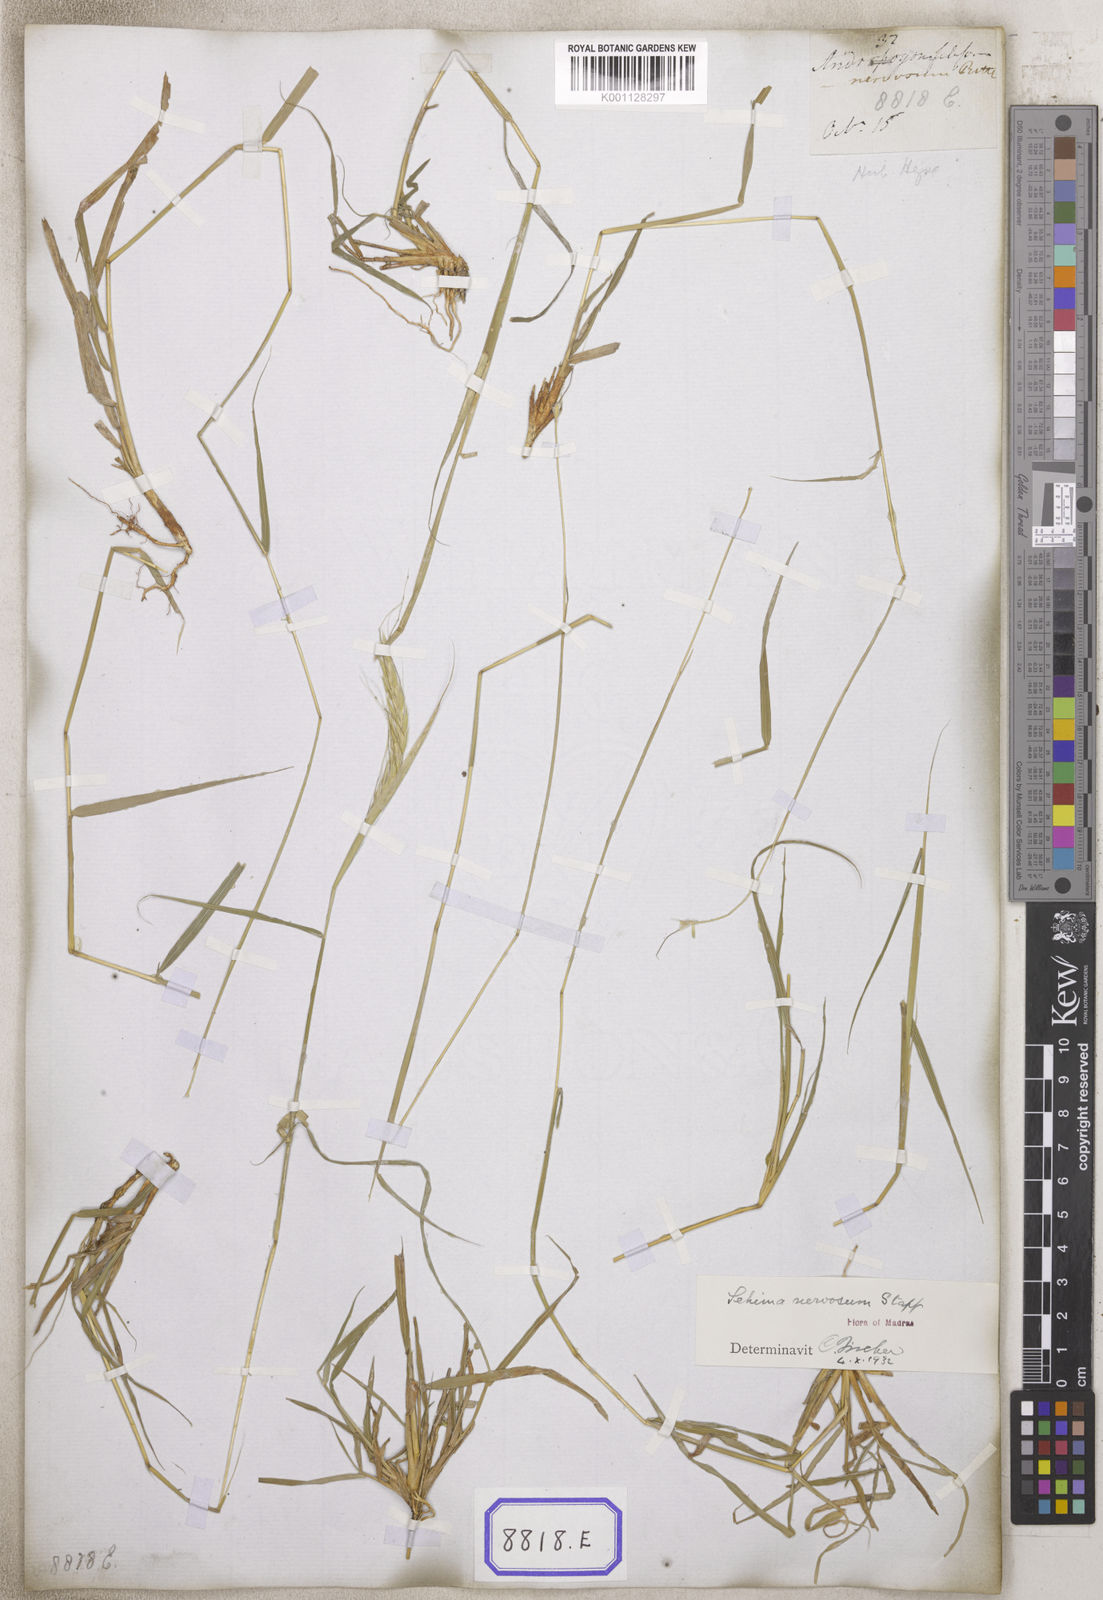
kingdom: Plantae
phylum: Tracheophyta
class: Liliopsida
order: Poales
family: Poaceae
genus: Andropogon
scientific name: Andropogon
